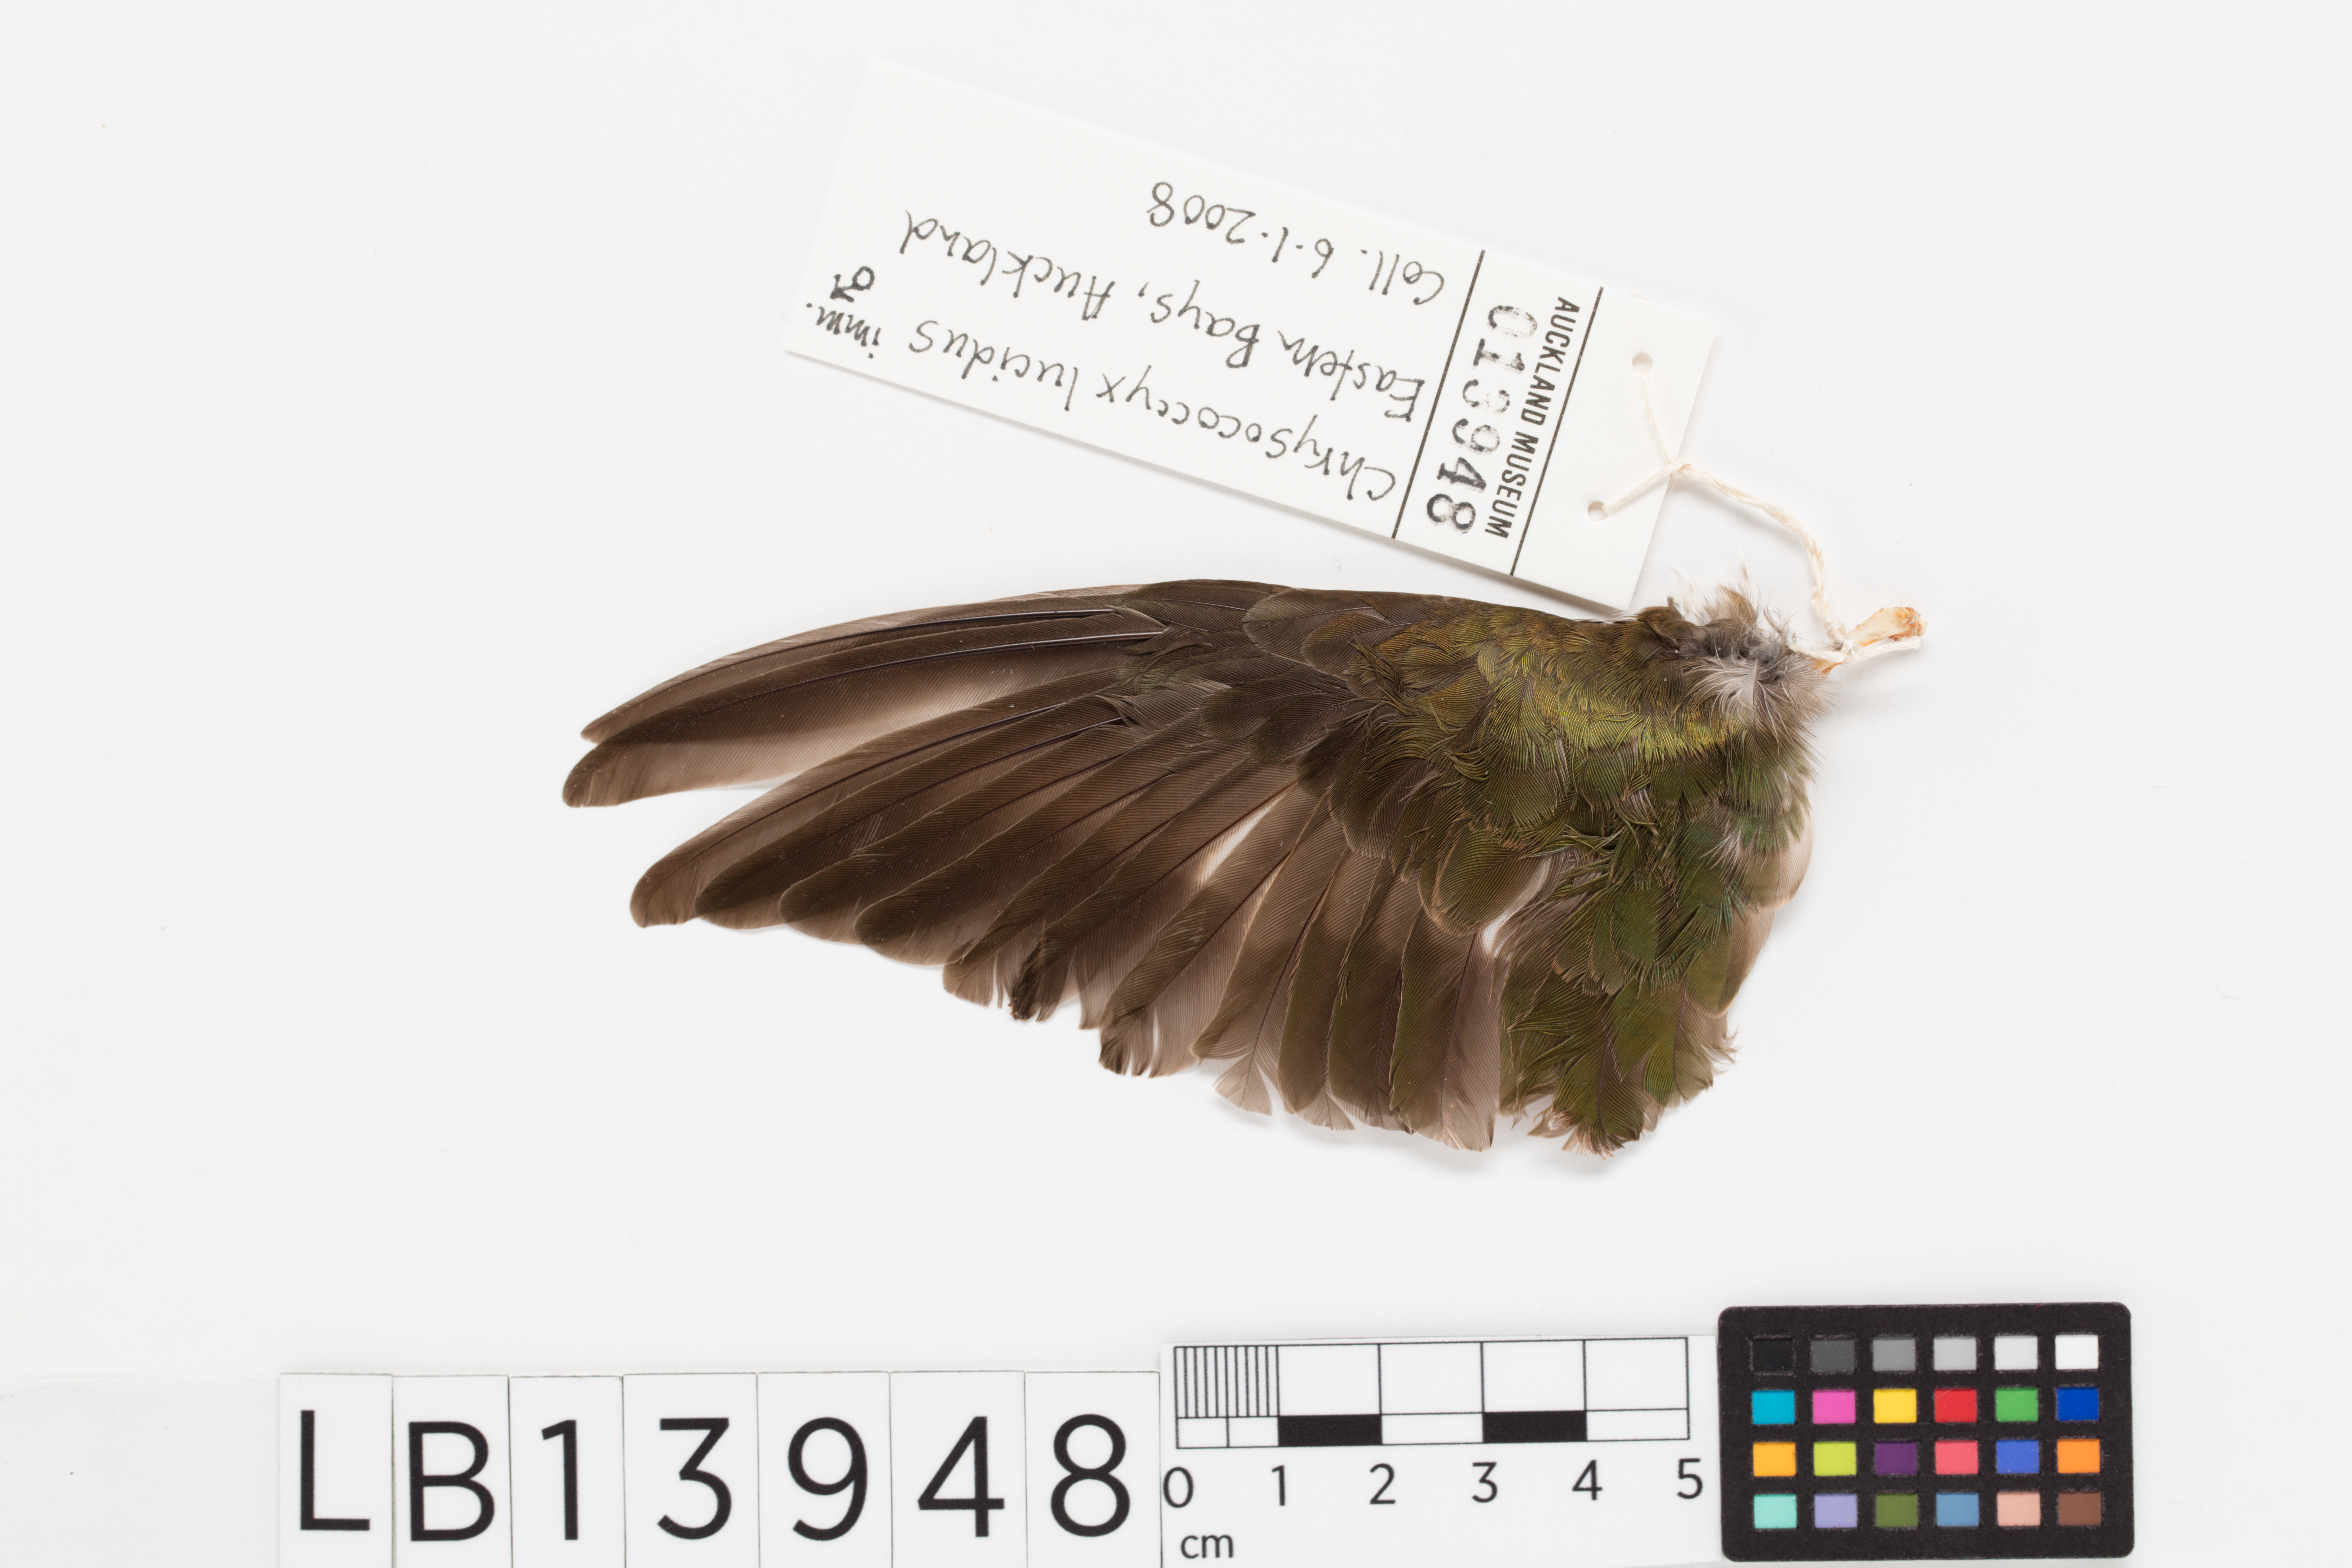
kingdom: Animalia
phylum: Chordata
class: Aves
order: Cuculiformes
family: Cuculidae
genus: Chrysococcyx
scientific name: Chrysococcyx lucidus
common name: Shining bronze cuckoo
